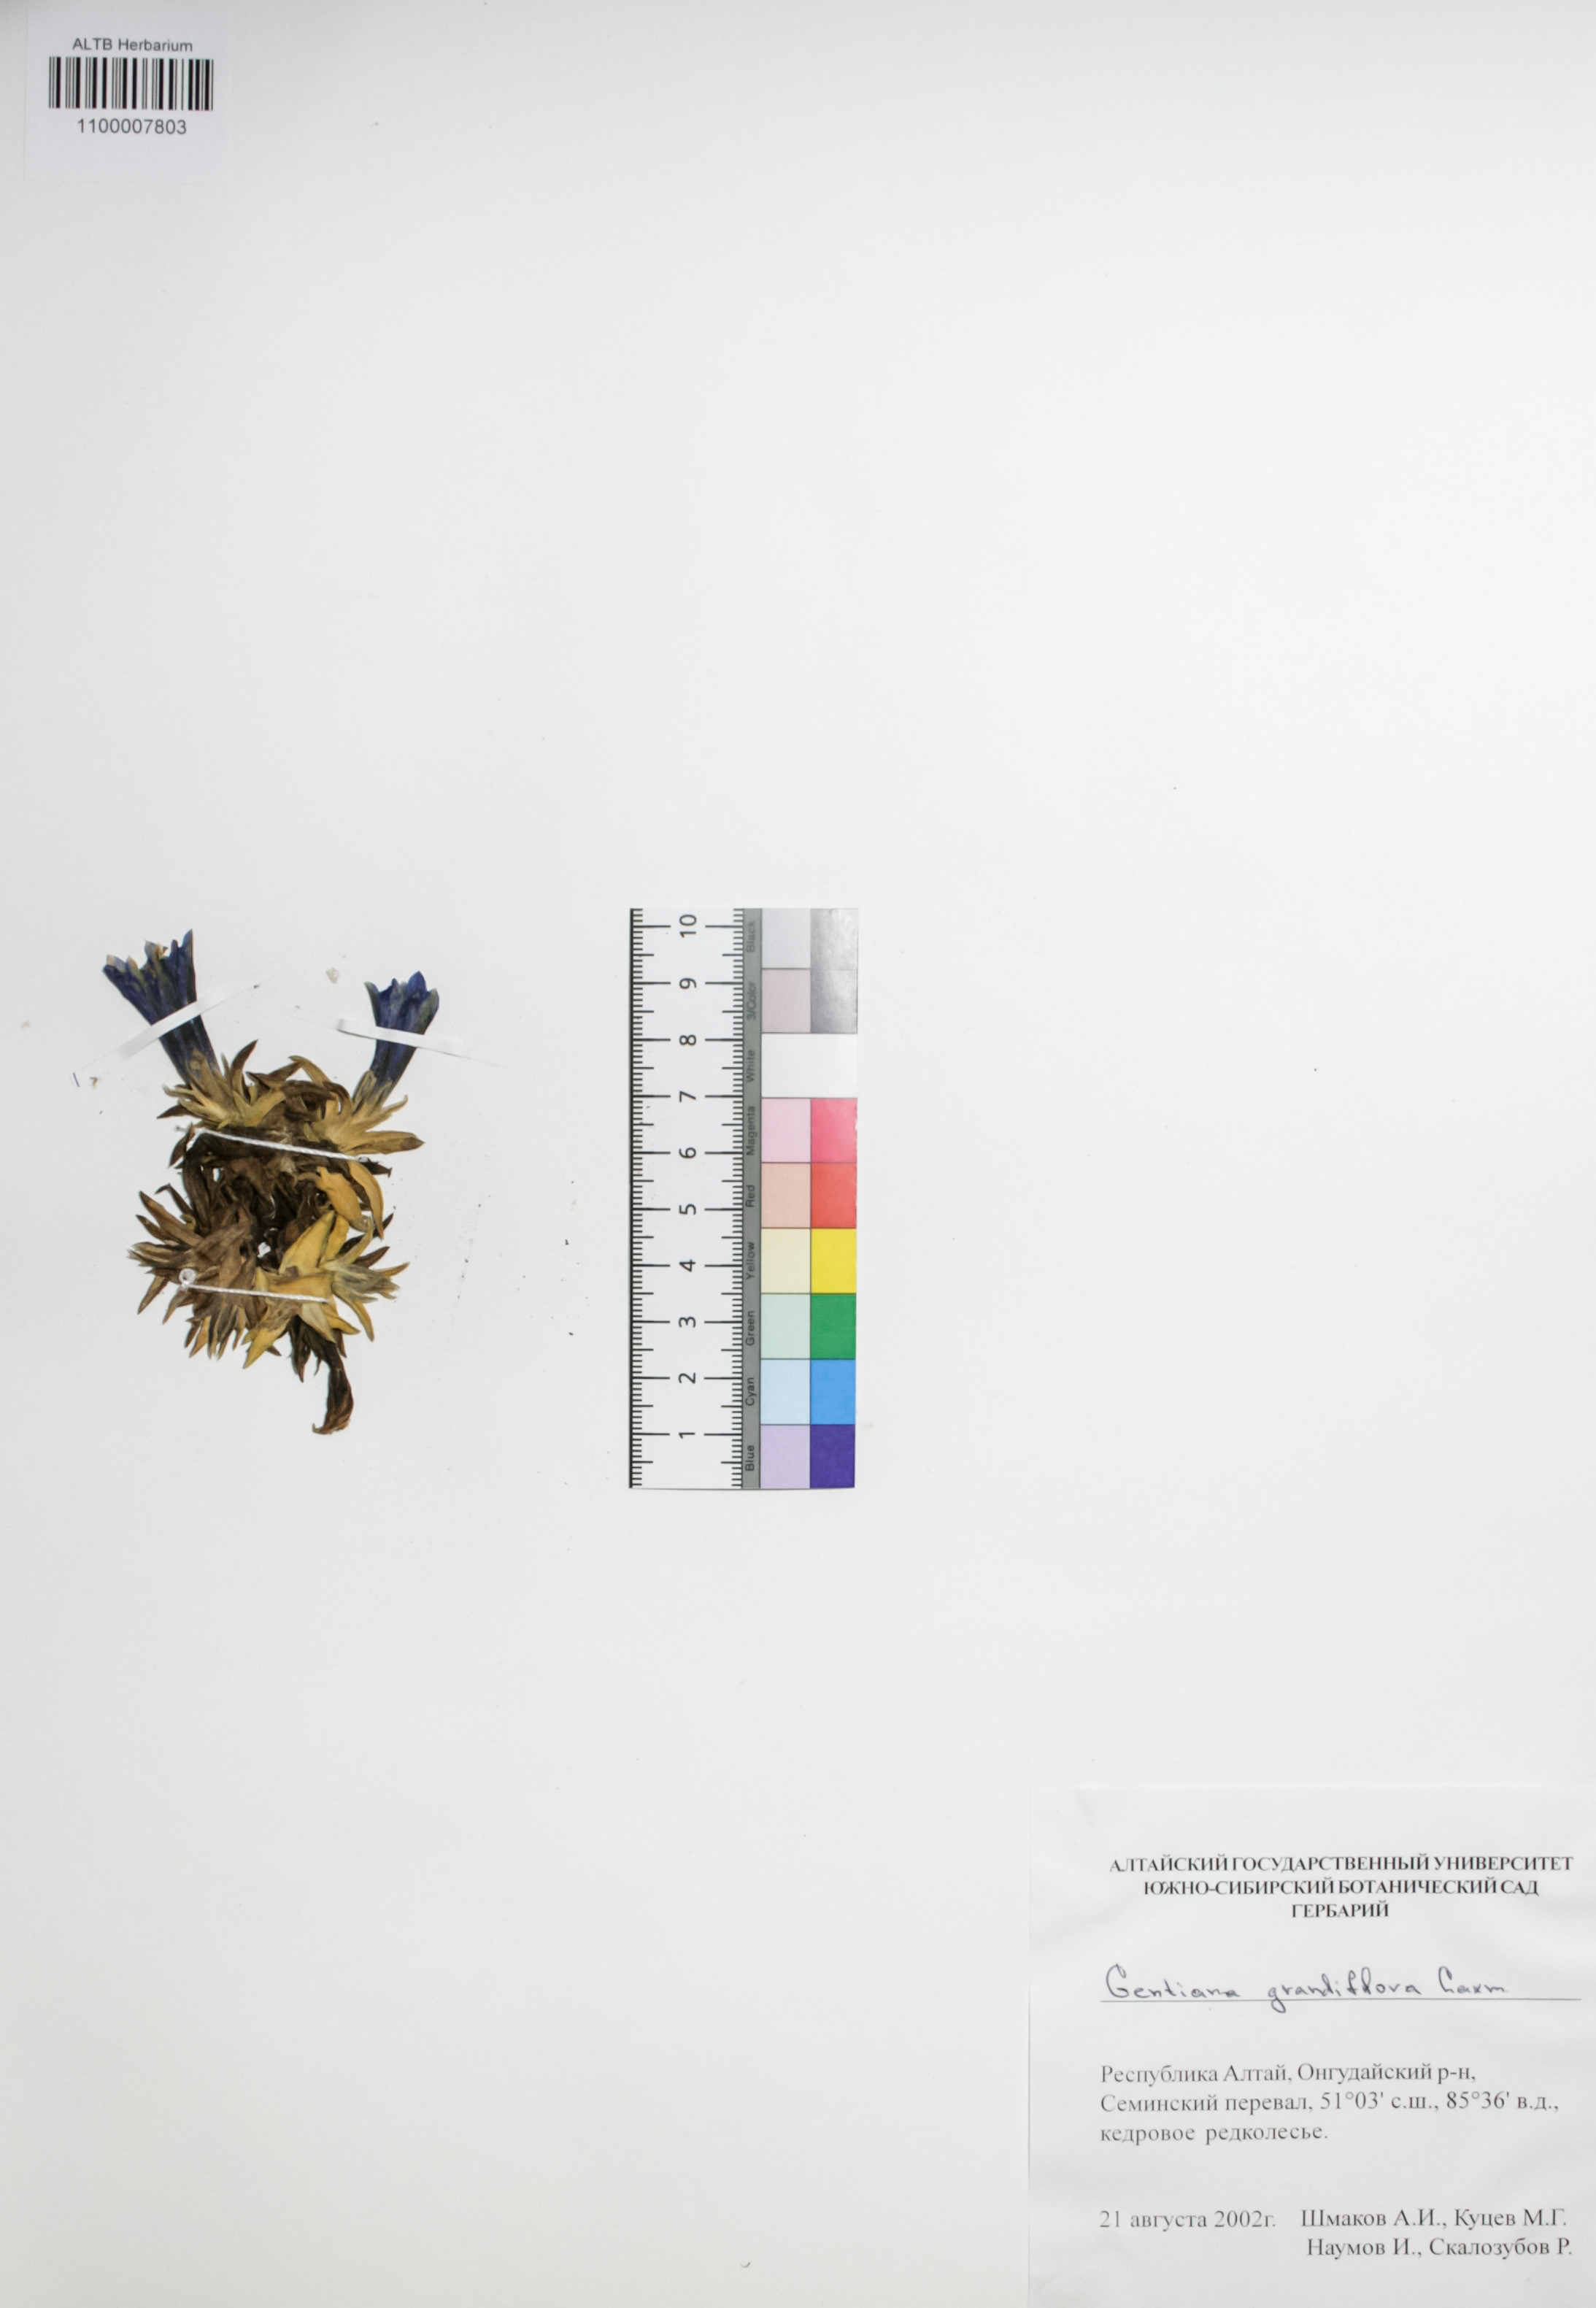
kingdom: Plantae
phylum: Tracheophyta
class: Magnoliopsida
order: Gentianales
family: Gentianaceae
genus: Gentiana
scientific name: Gentiana grandiflora
